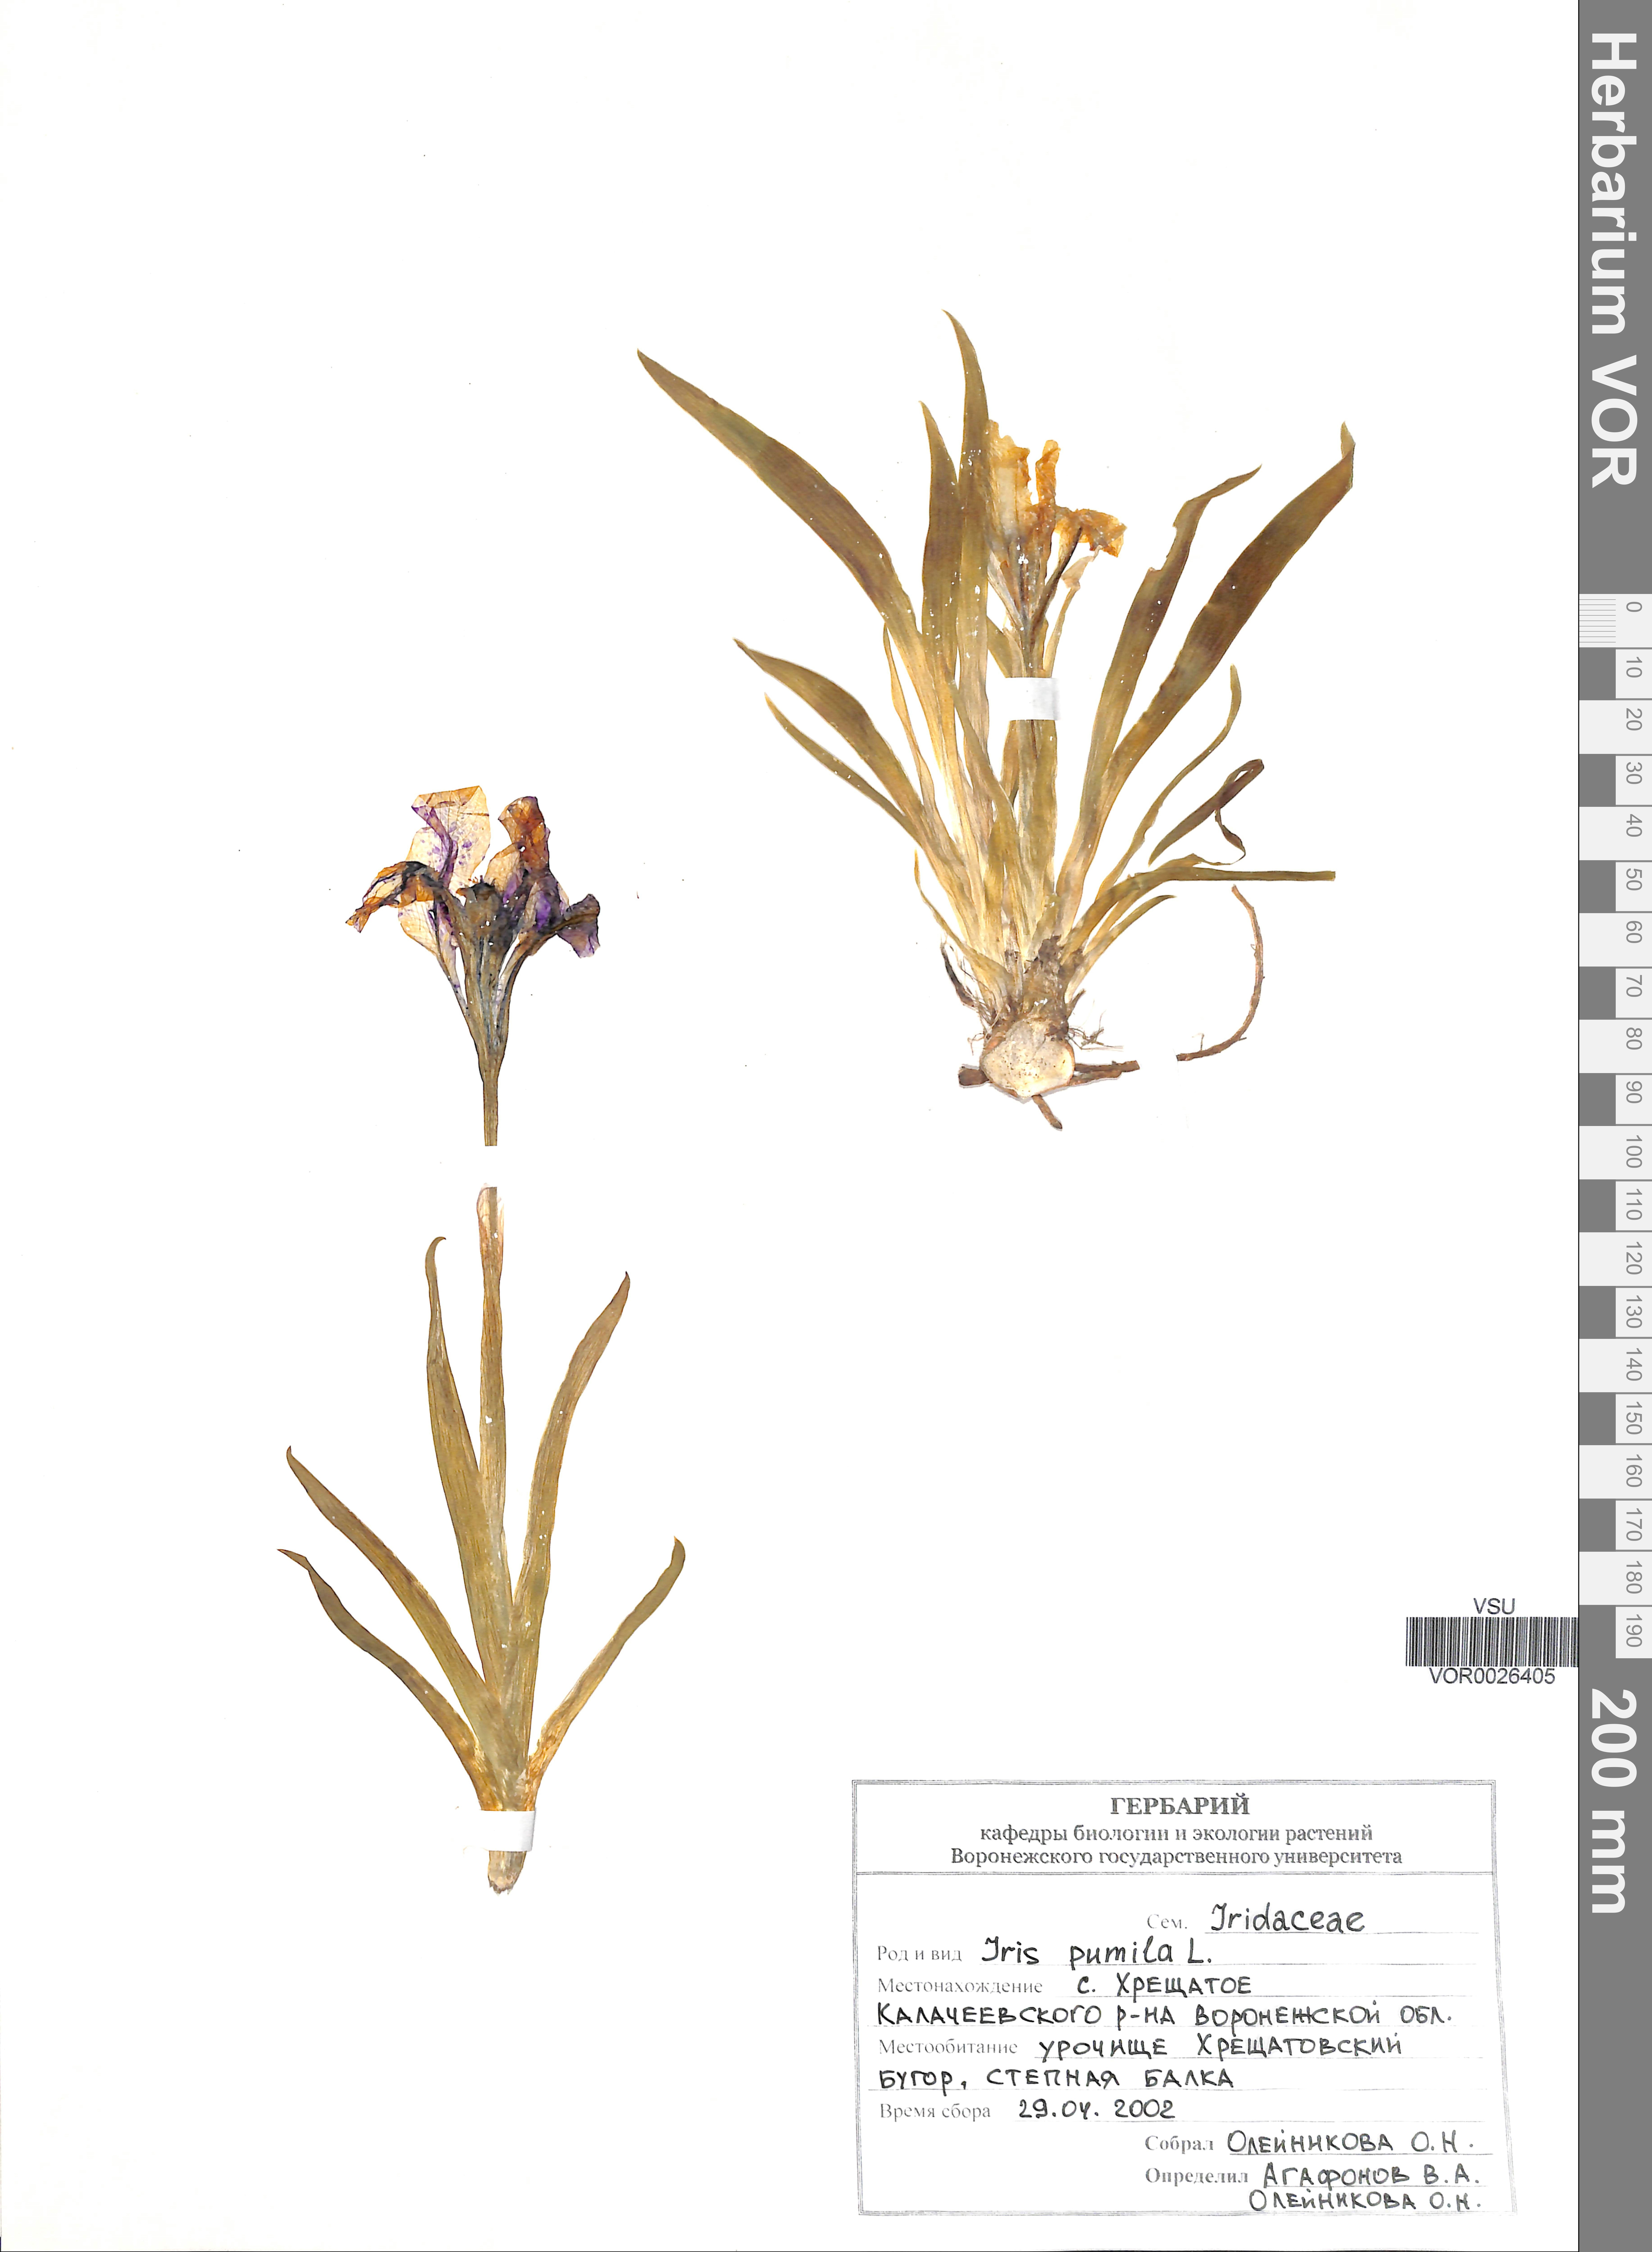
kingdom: Plantae
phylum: Tracheophyta
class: Liliopsida
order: Asparagales
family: Iridaceae
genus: Iris
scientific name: Iris pumila
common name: Dwarf iris
